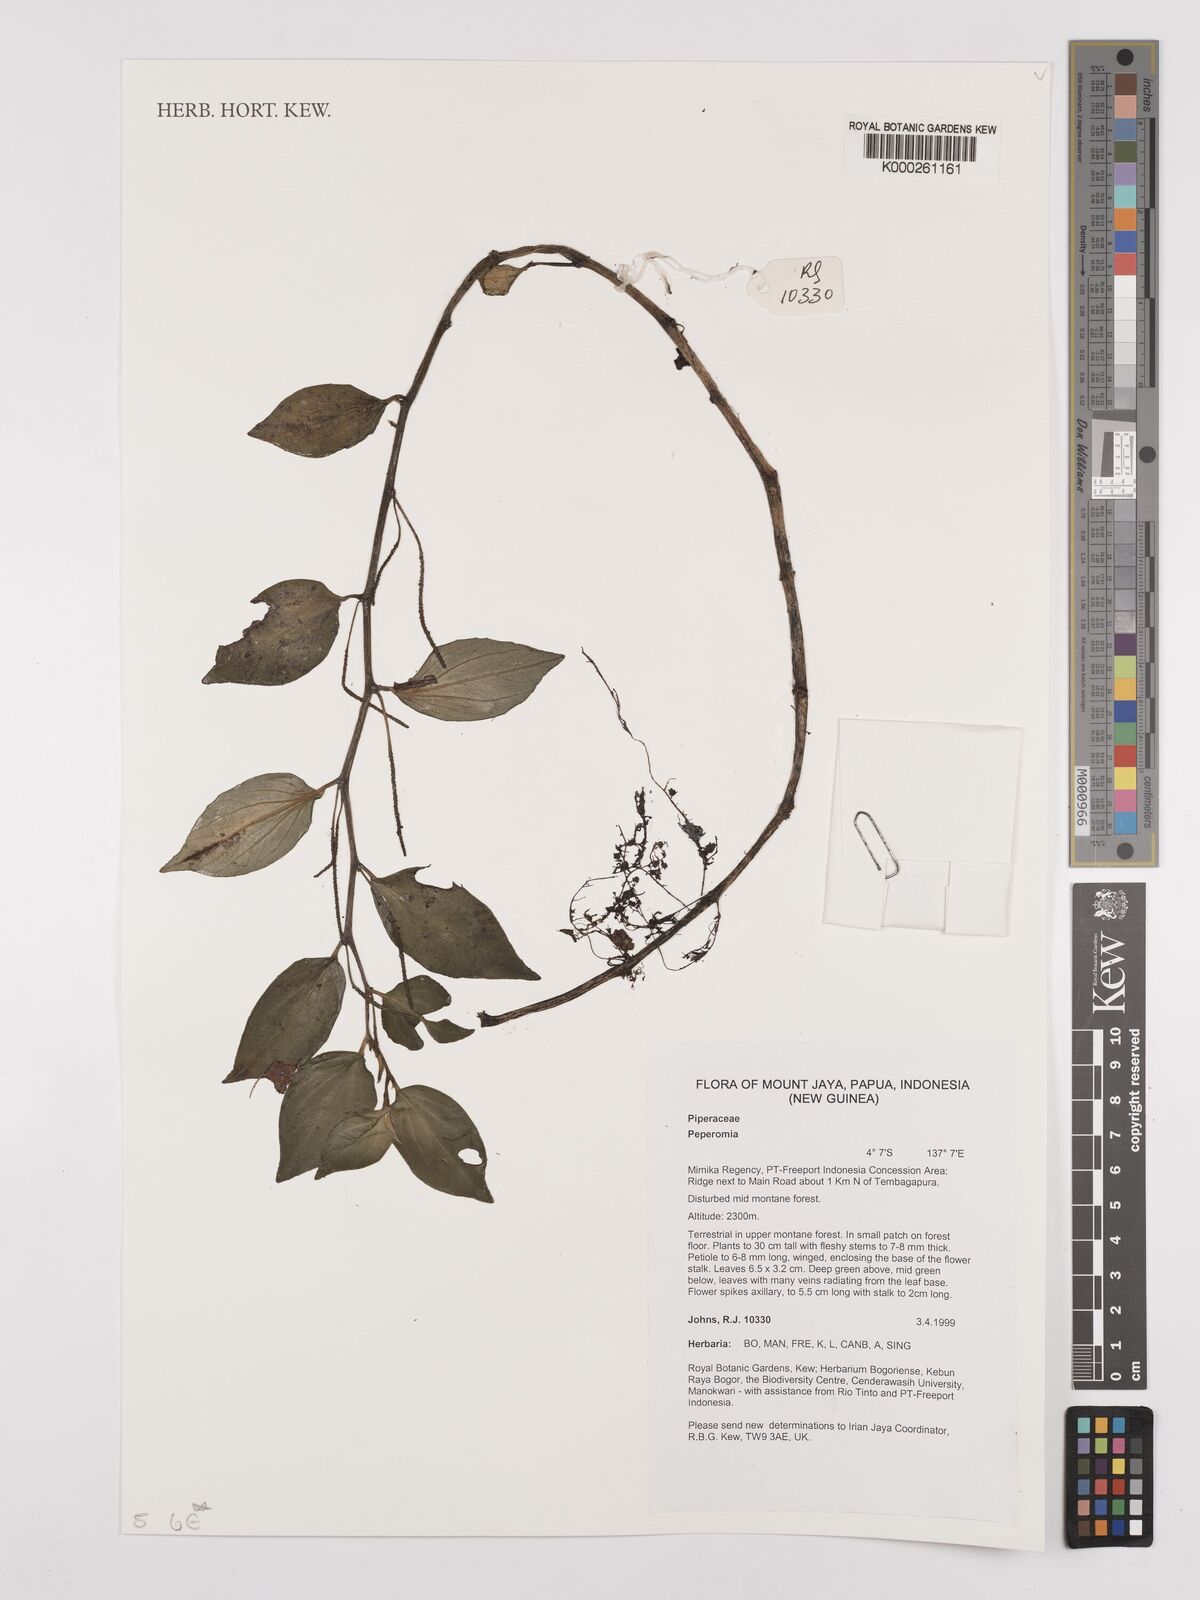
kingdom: Plantae
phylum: Tracheophyta
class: Magnoliopsida
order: Piperales
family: Piperaceae
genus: Peperomia
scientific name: Peperomia
